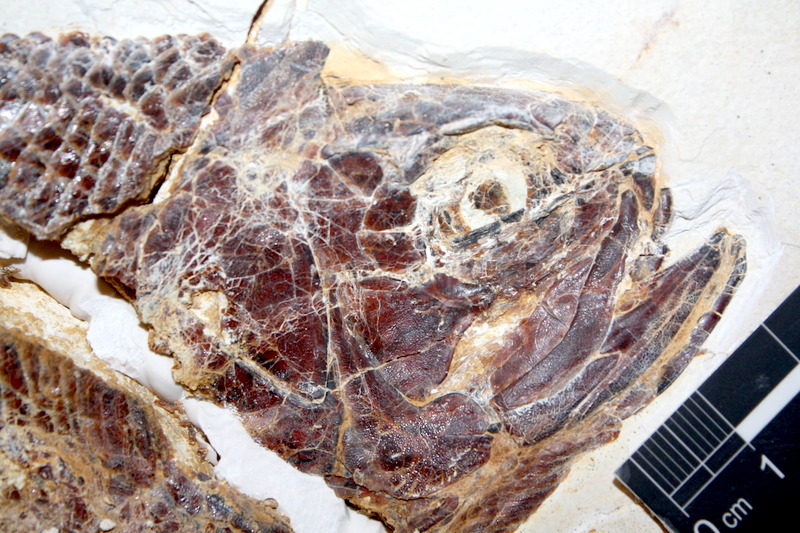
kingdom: Animalia
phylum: Chordata
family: Ankylophoridae
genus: Pholidophoristion
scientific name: Pholidophoristion ovatus
